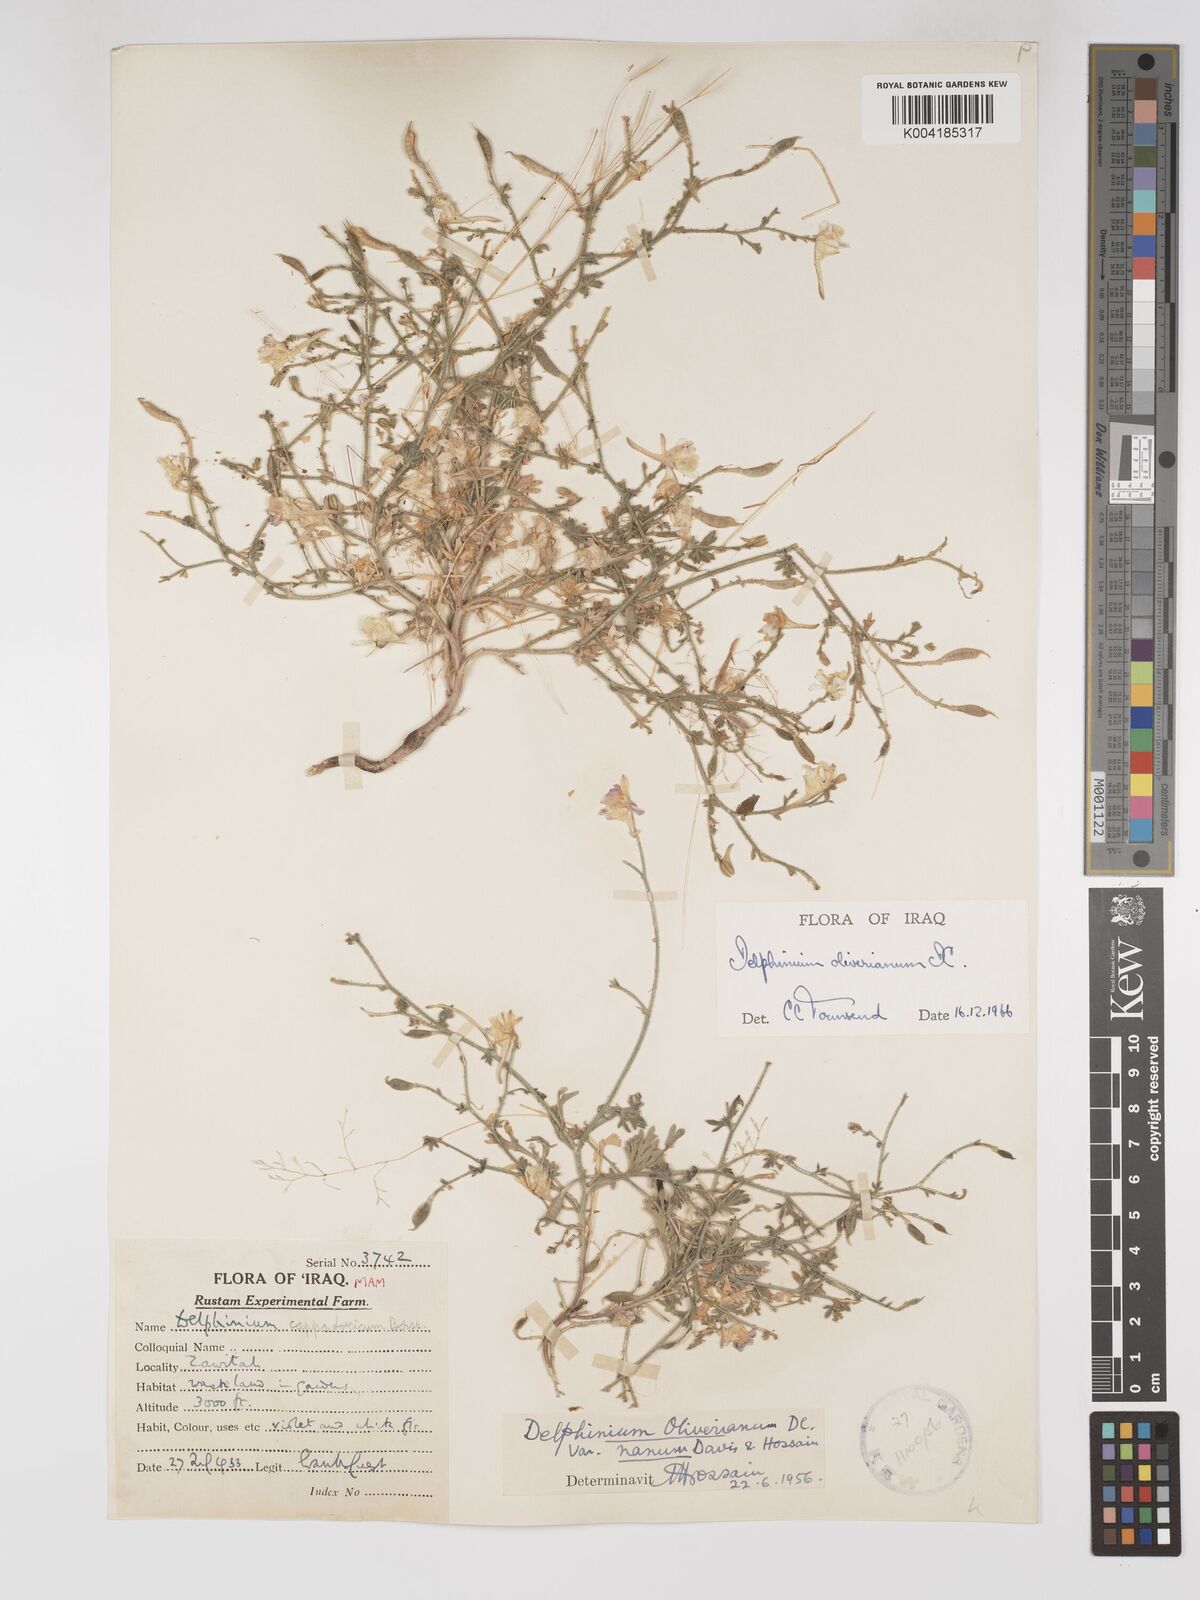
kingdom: Plantae
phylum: Tracheophyta
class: Magnoliopsida
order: Ranunculales
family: Ranunculaceae
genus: Delphinium
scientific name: Delphinium oliverianum
